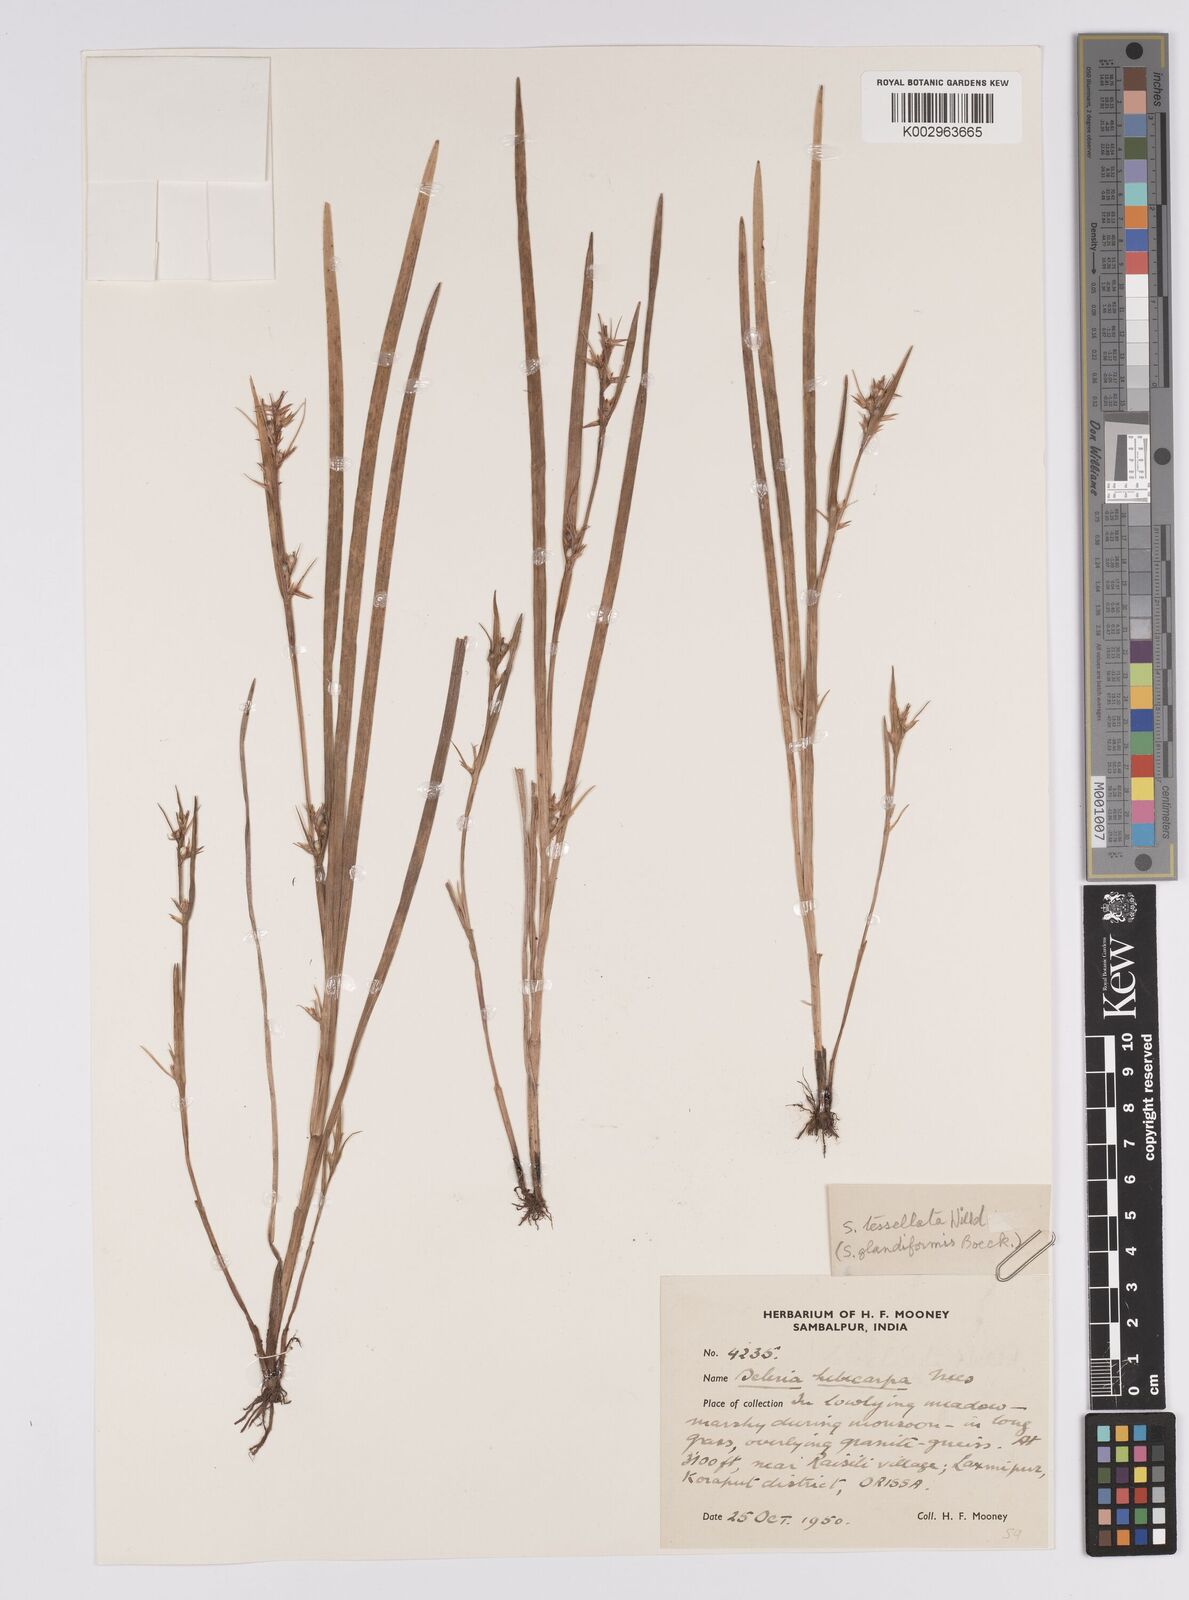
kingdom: Plantae
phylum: Tracheophyta
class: Liliopsida
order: Poales
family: Cyperaceae
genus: Scleria
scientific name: Scleria tessellata
